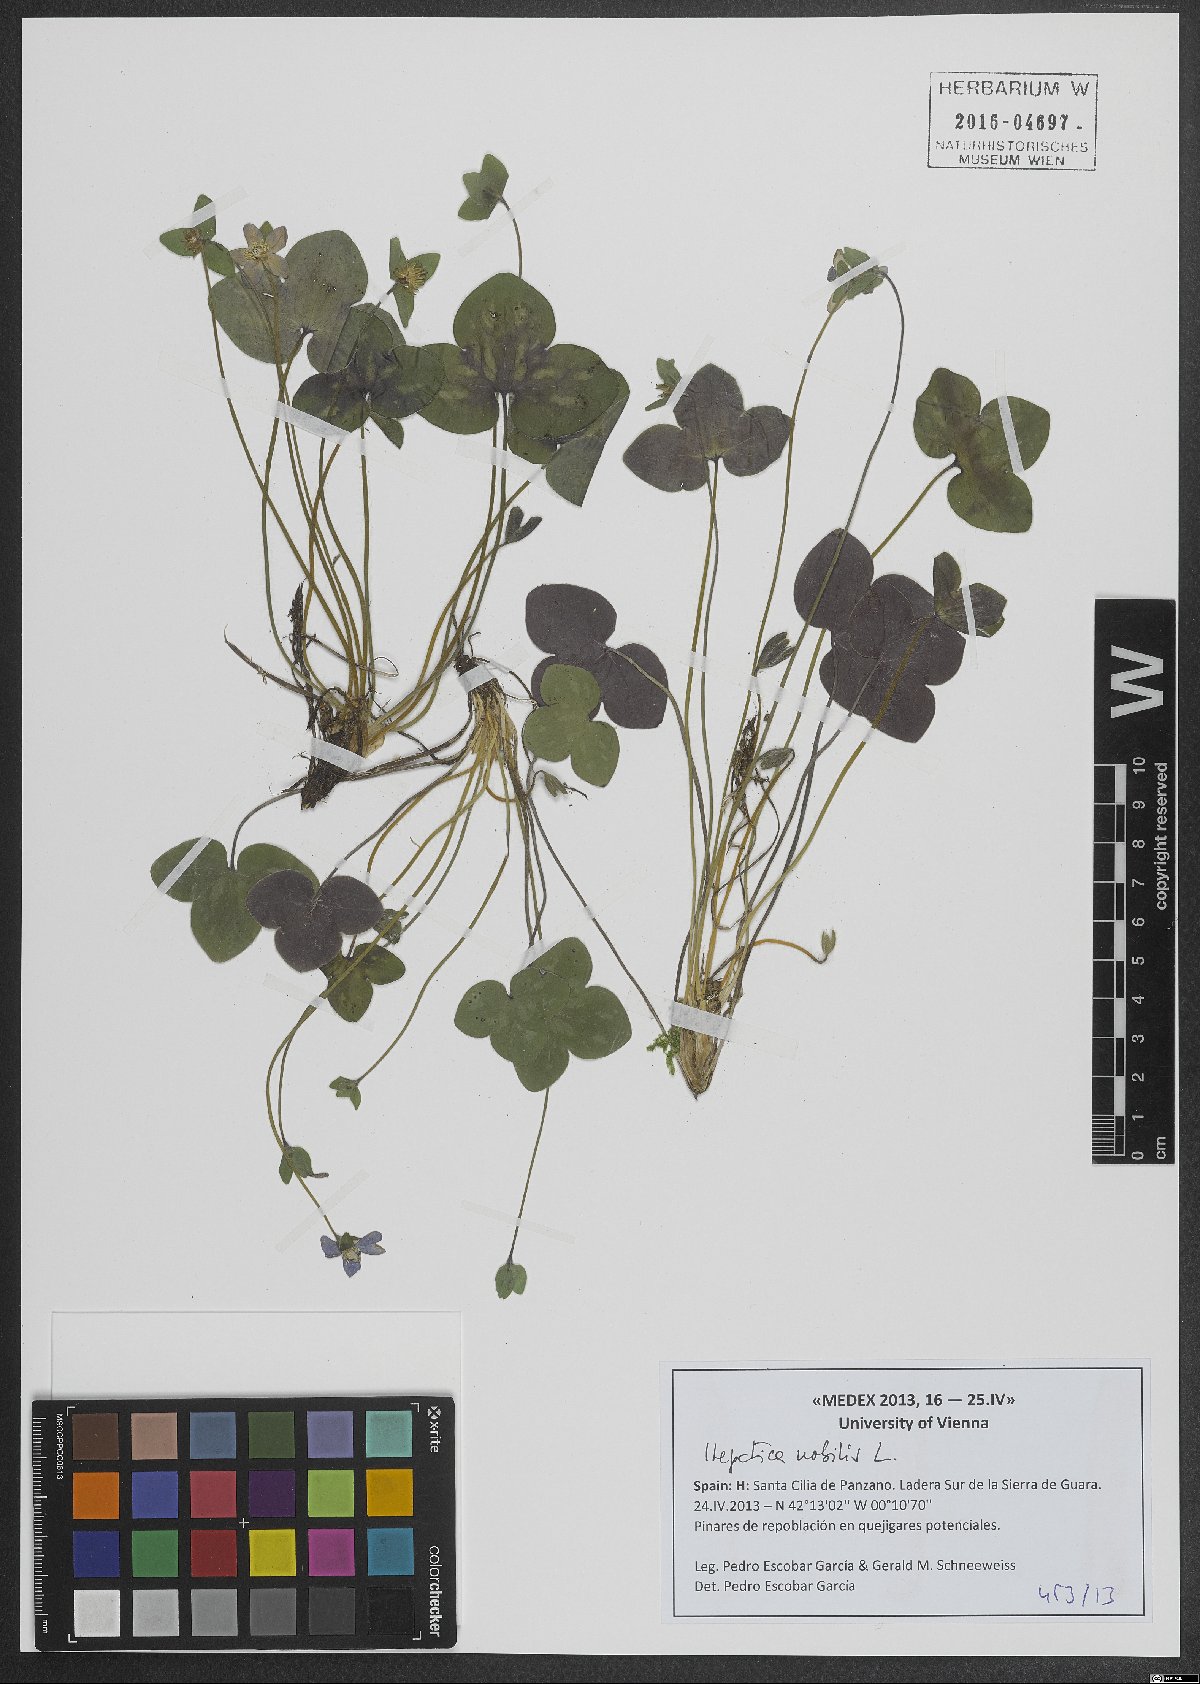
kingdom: Plantae
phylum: Tracheophyta
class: Magnoliopsida
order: Ranunculales
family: Ranunculaceae
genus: Hepatica
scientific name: Hepatica nobilis
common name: Liverleaf
